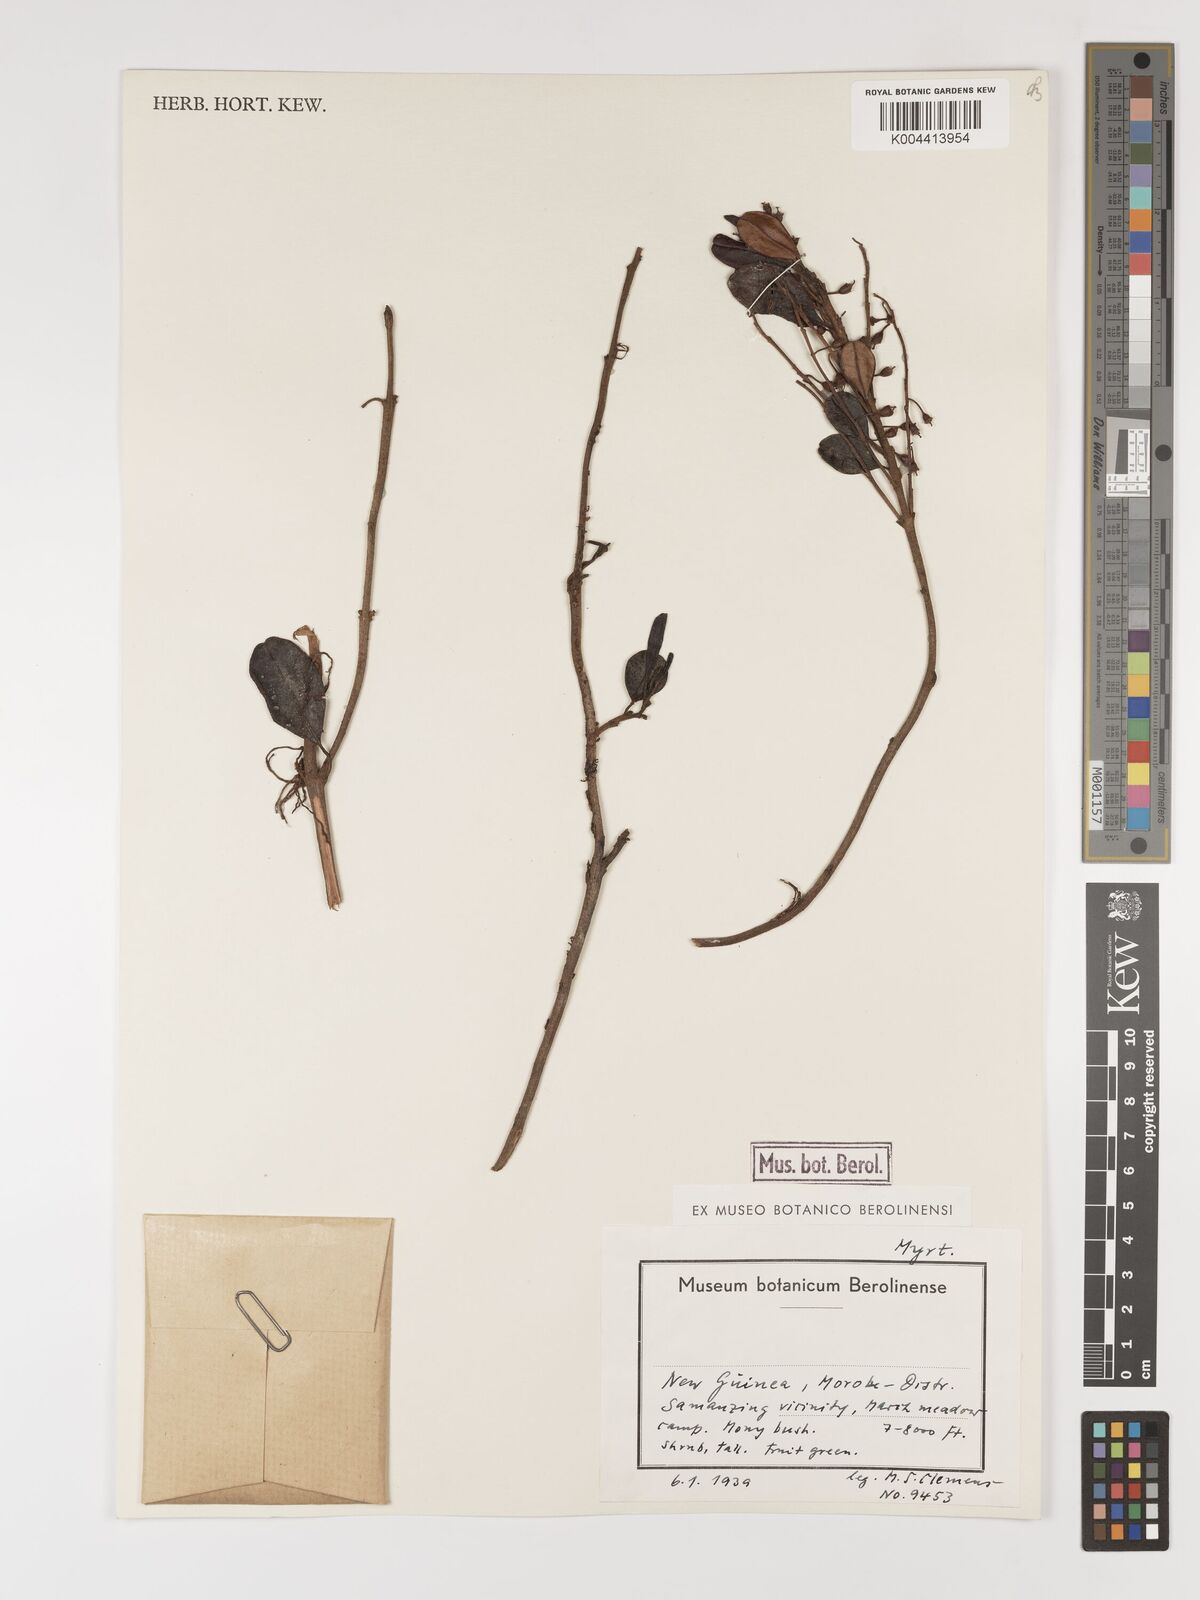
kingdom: Plantae
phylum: Tracheophyta
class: Magnoliopsida
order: Myrtales
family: Myrtaceae
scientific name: Myrtaceae
